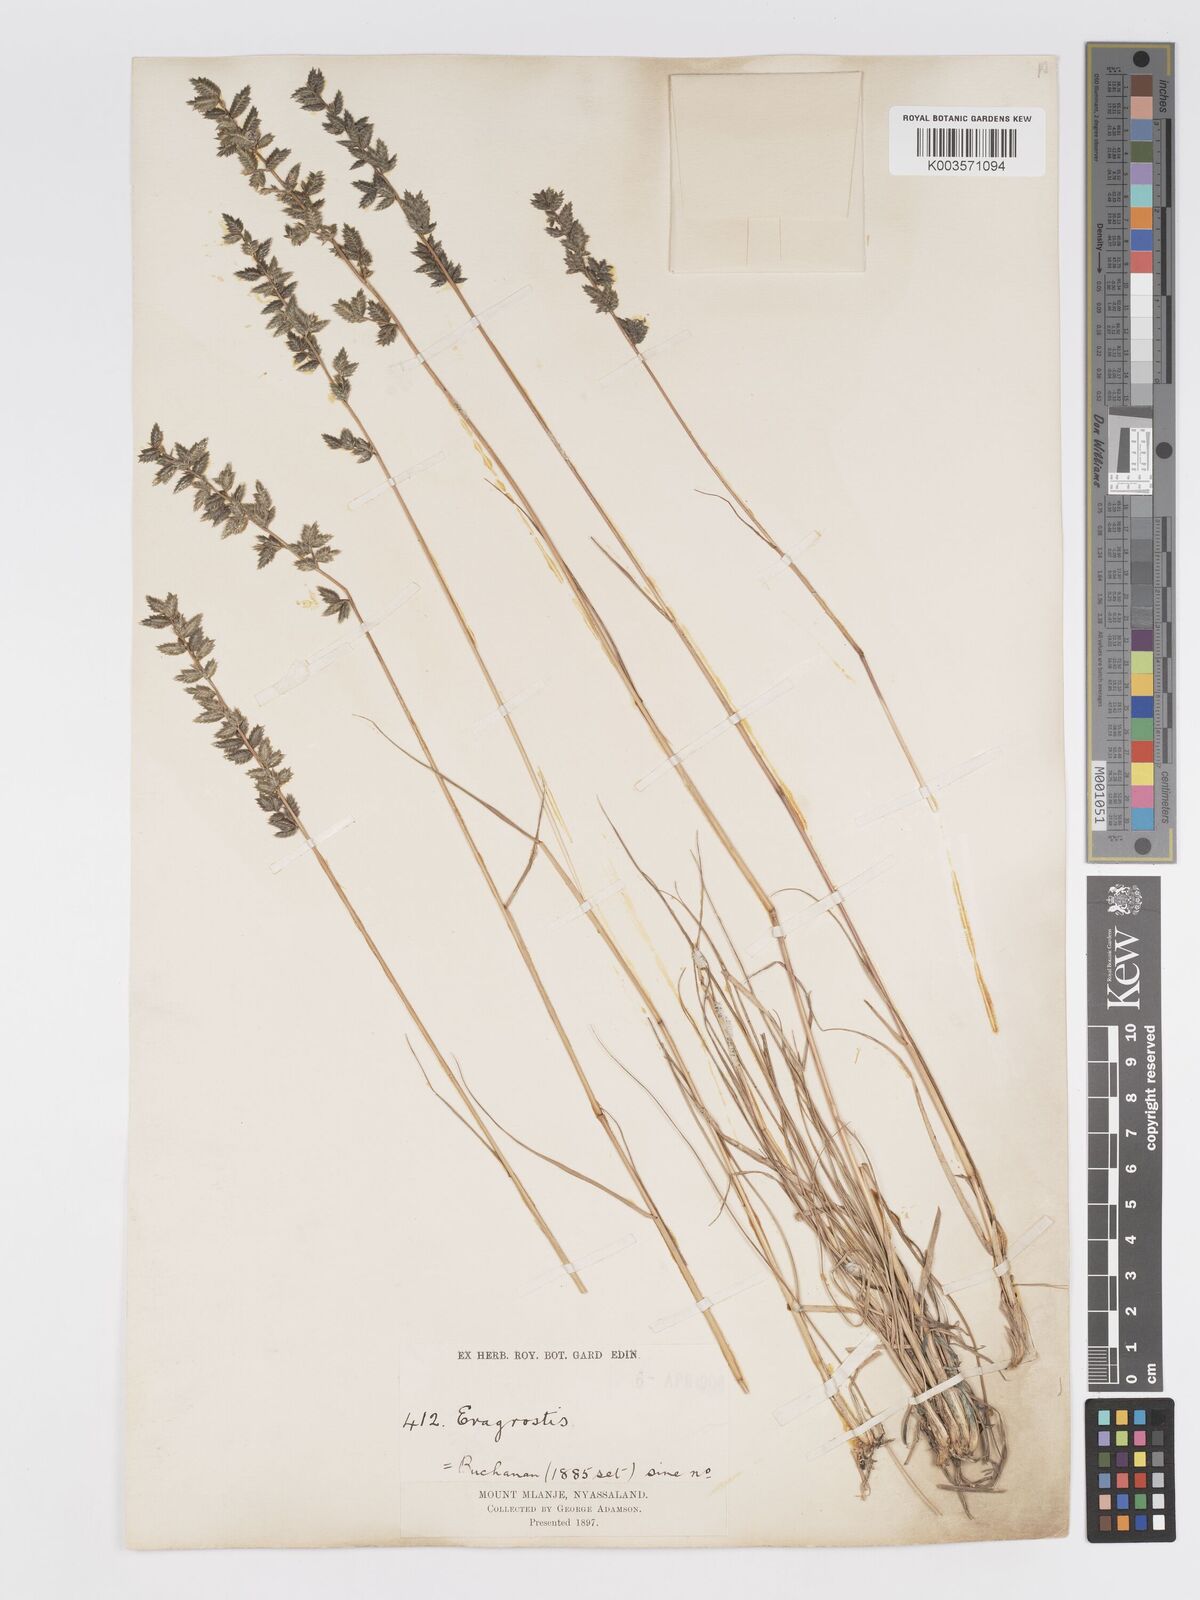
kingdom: Plantae
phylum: Tracheophyta
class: Liliopsida
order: Poales
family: Poaceae
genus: Eragrostis
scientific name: Eragrostis nindensis
